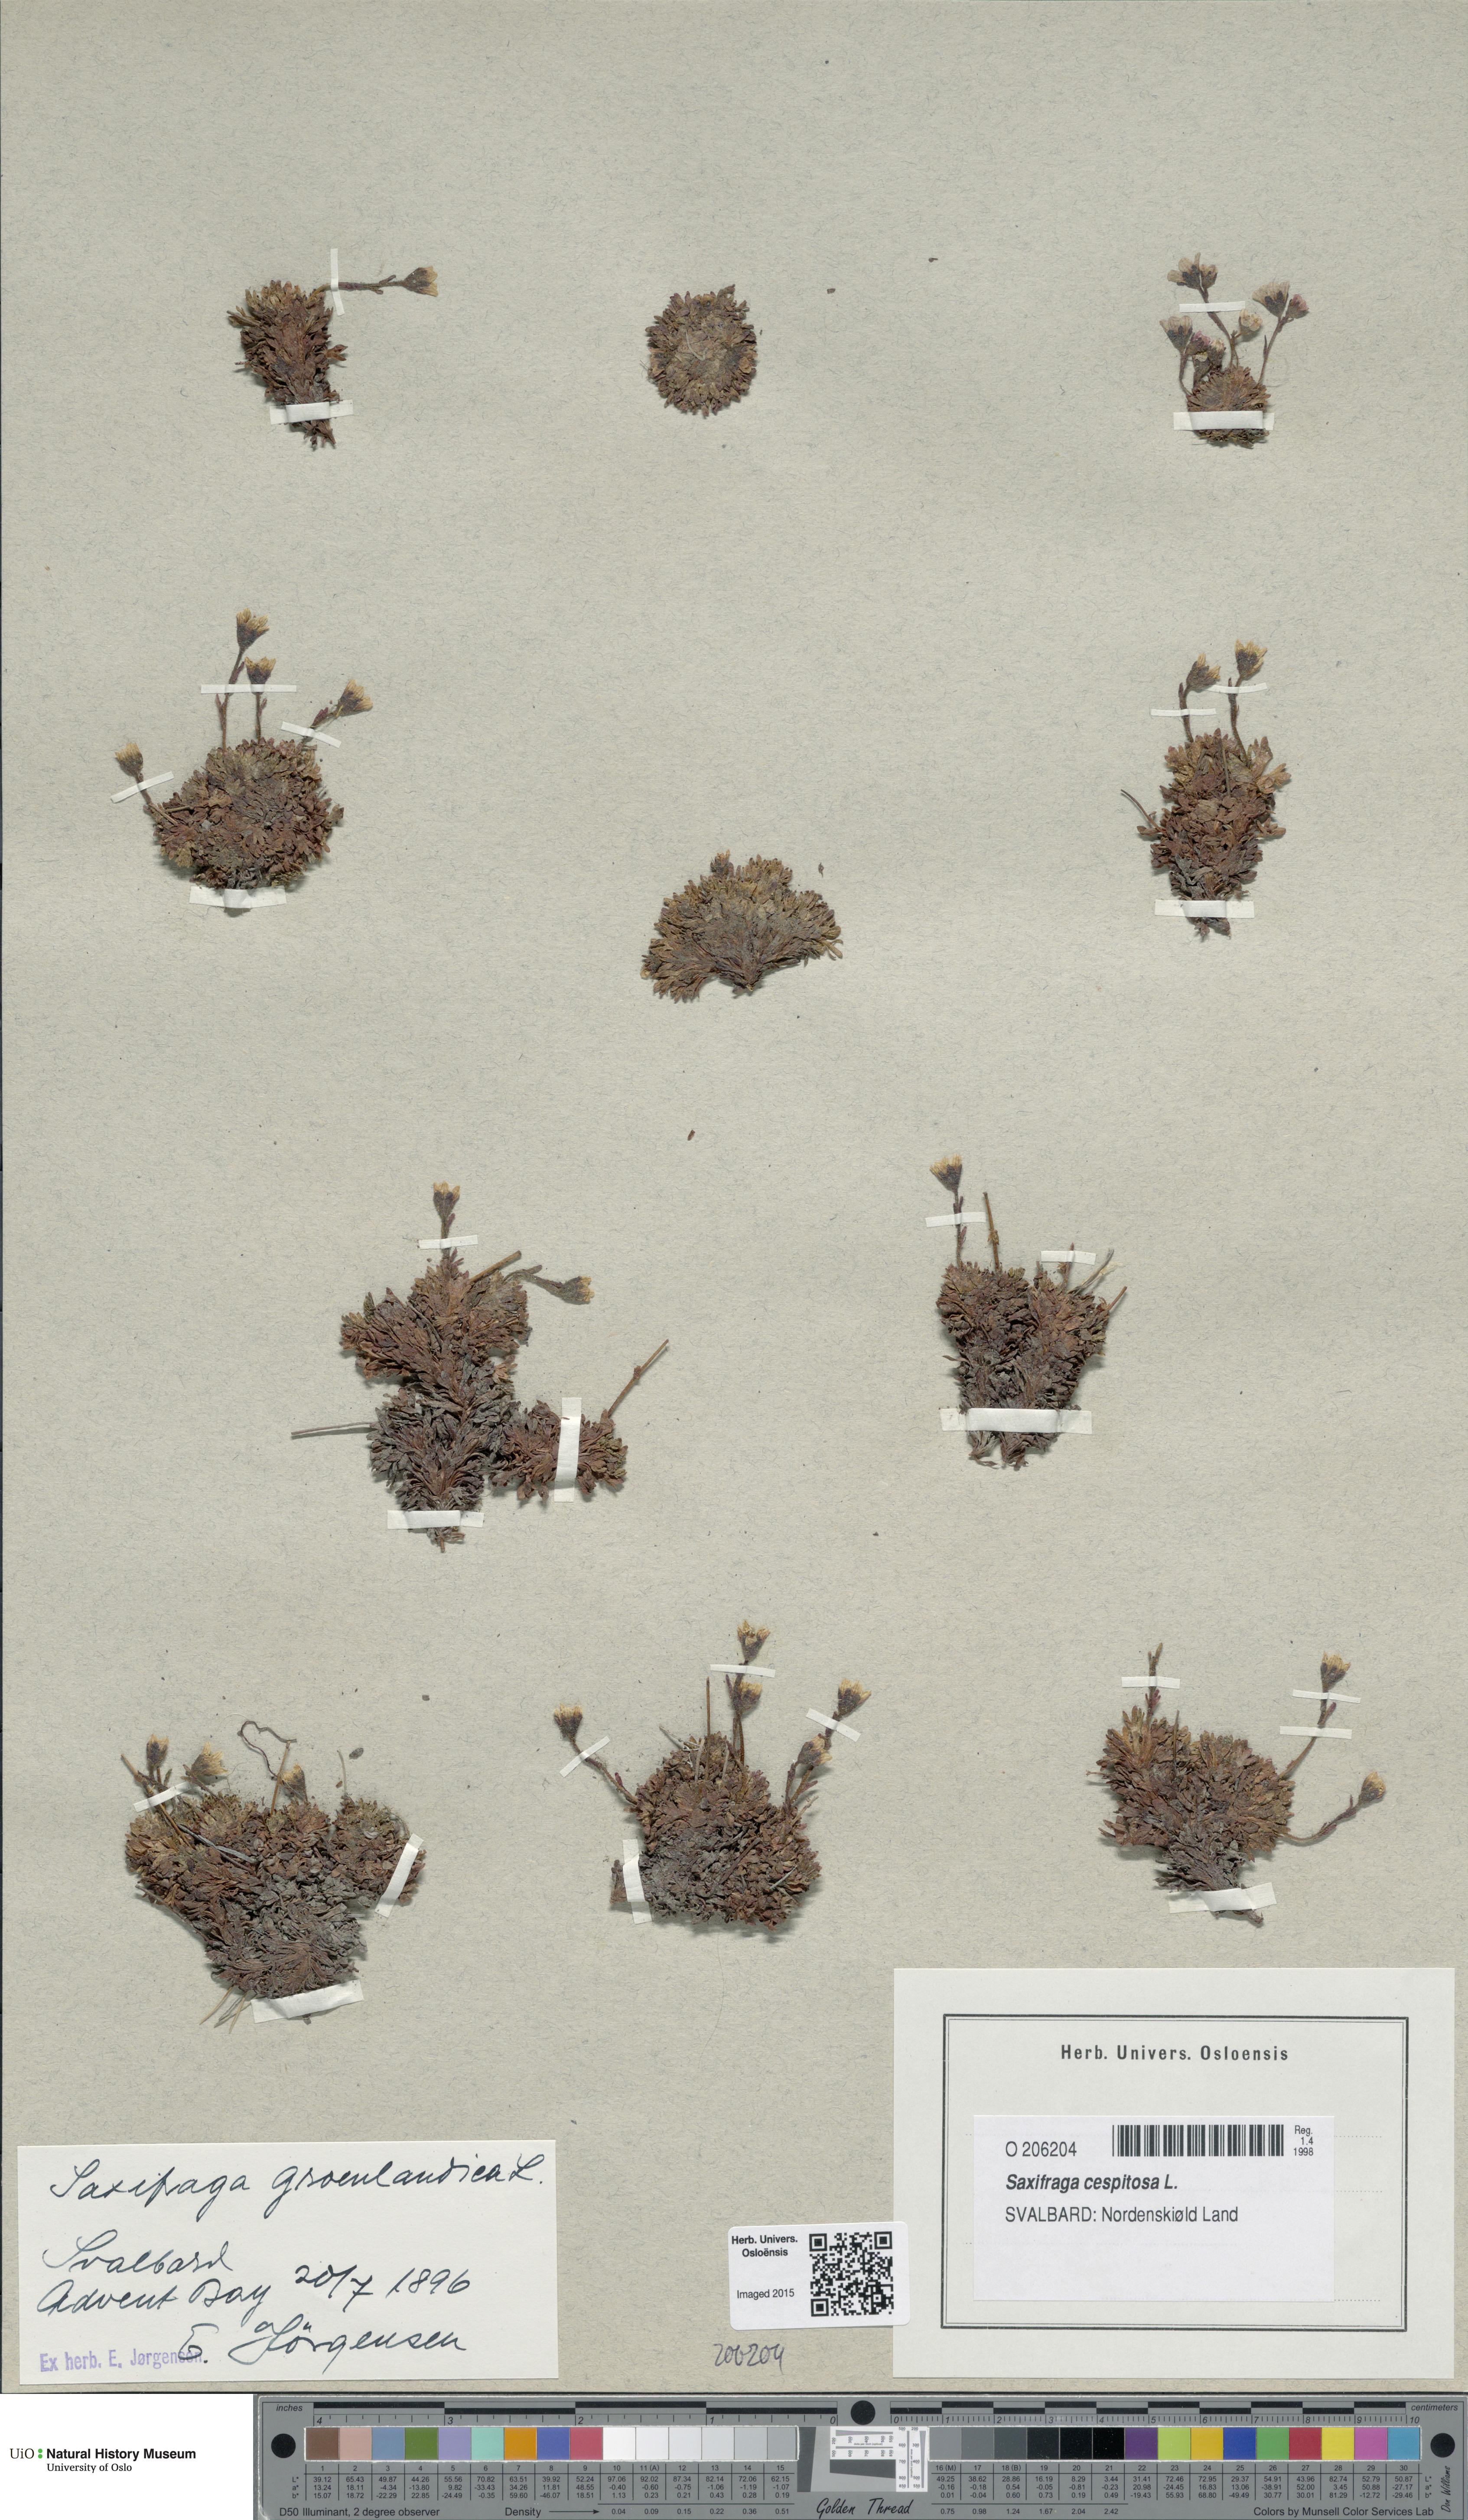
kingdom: Plantae
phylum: Tracheophyta
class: Magnoliopsida
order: Saxifragales
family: Saxifragaceae
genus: Saxifraga
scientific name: Saxifraga cespitosa
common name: Tufted saxifrage
